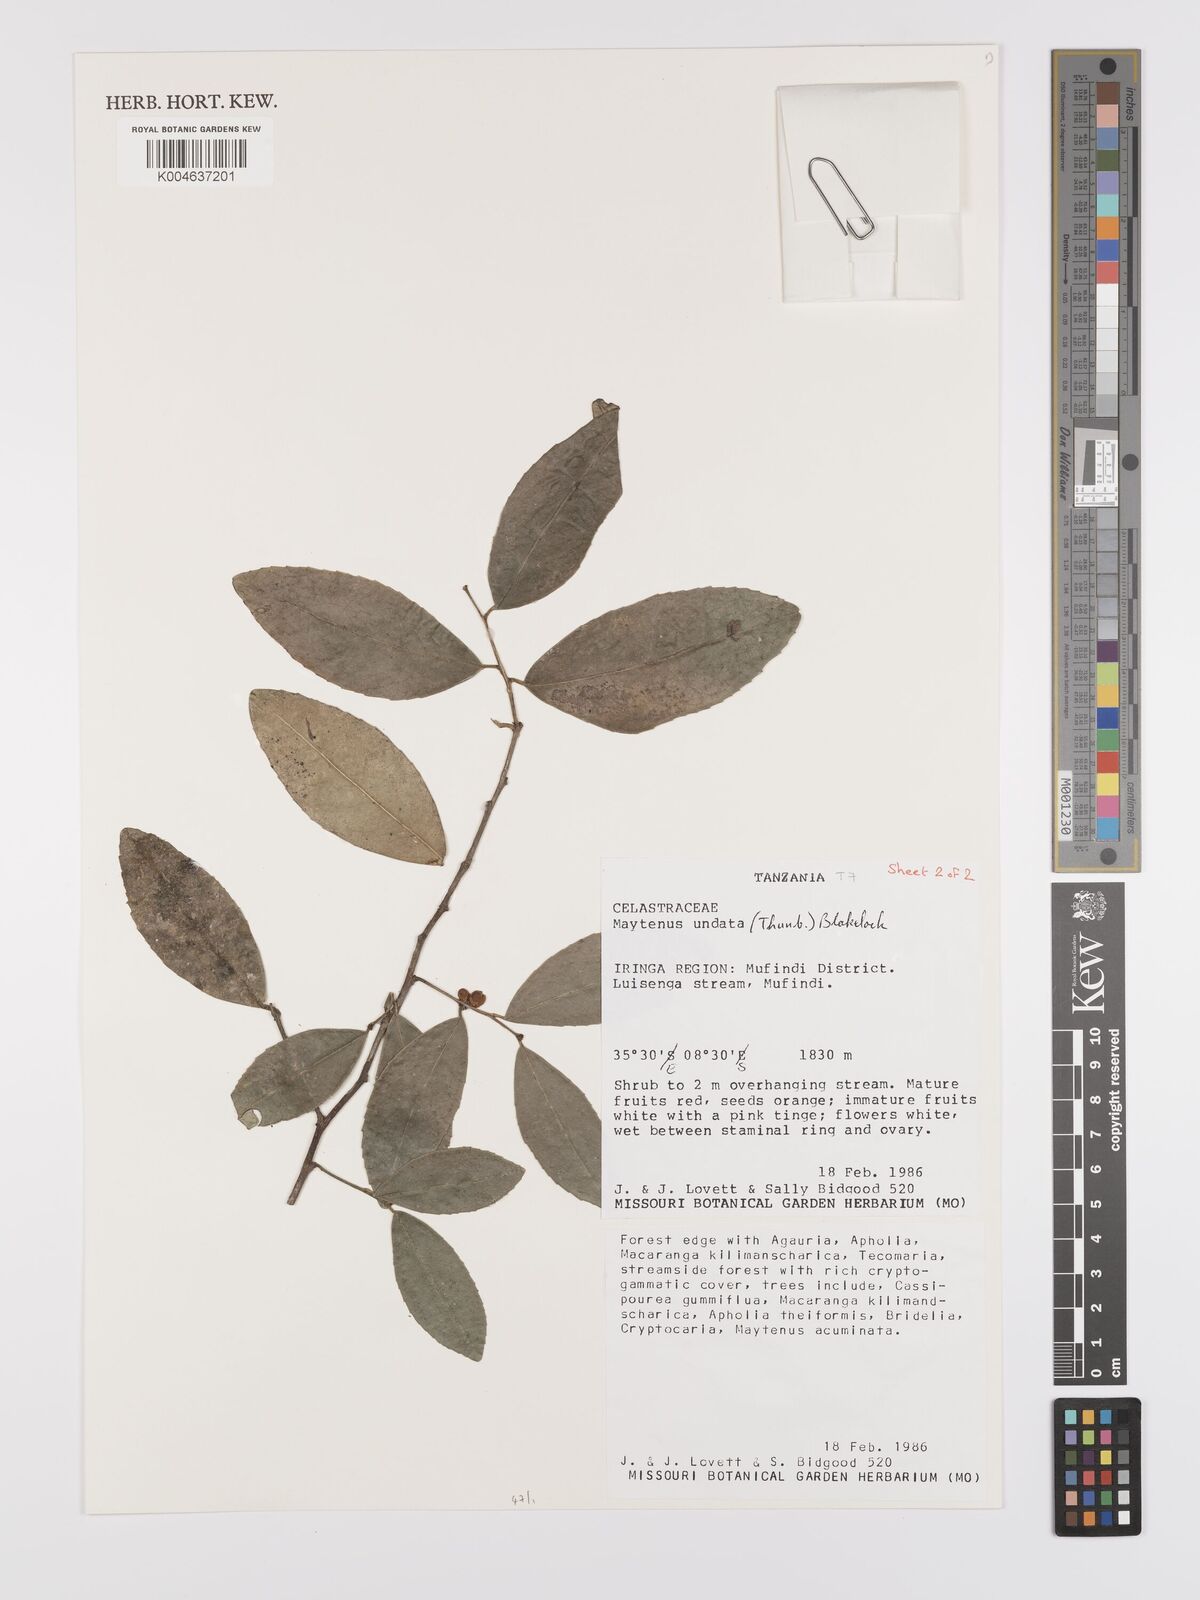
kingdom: Plantae
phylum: Tracheophyta
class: Magnoliopsida
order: Celastrales
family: Celastraceae
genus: Gymnosporia
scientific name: Gymnosporia undata
